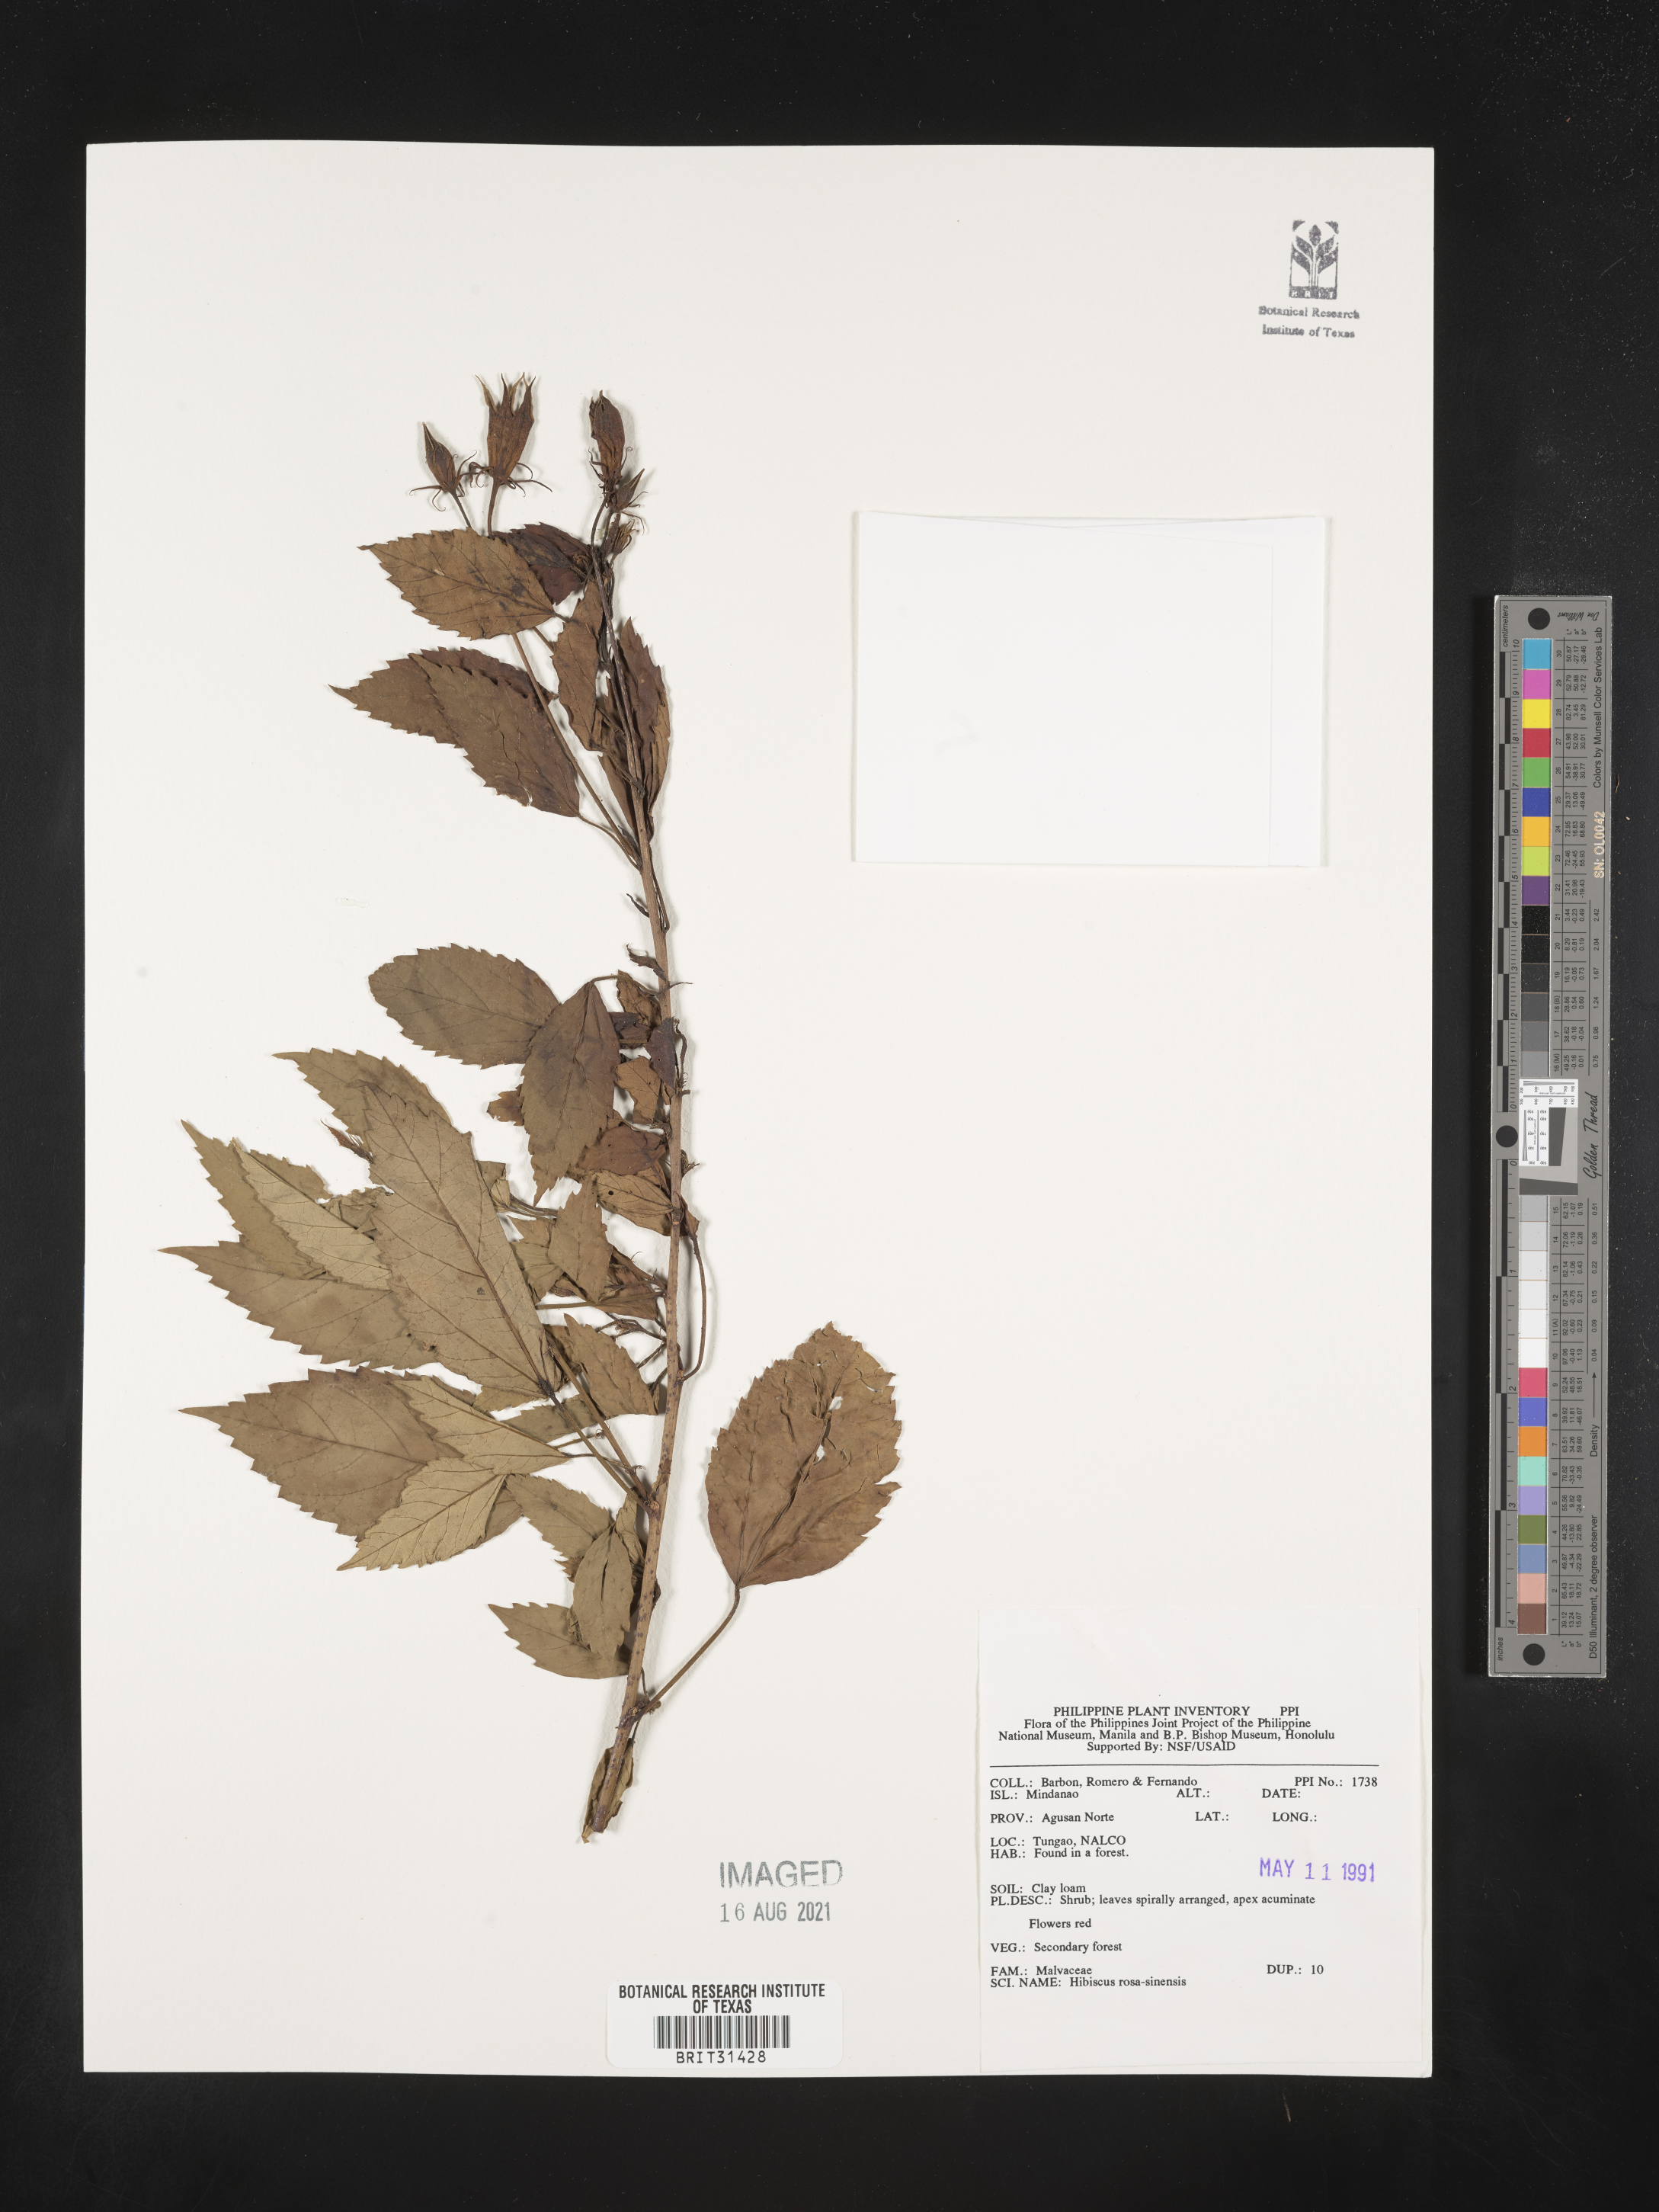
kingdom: Plantae
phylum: Tracheophyta
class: Magnoliopsida
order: Malvales
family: Malvaceae
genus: Hibiscus
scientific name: Hibiscus rosa-sinensis
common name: Hibiscus
